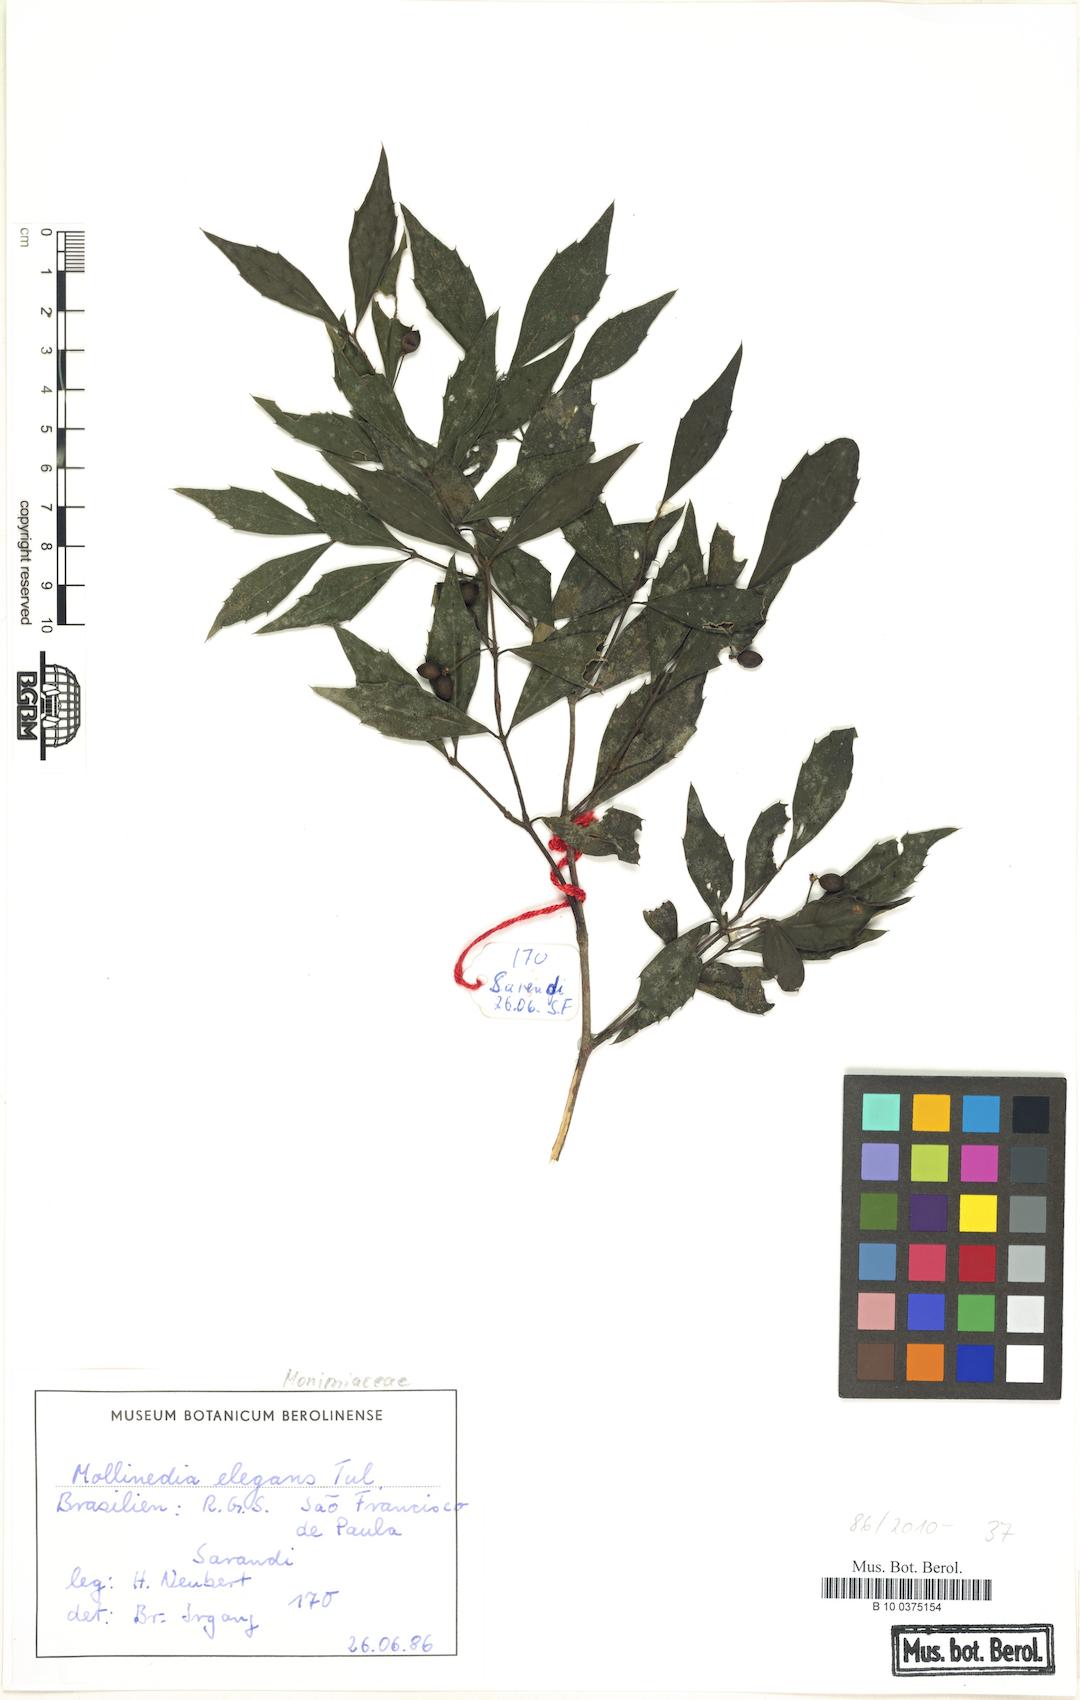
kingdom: Plantae
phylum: Tracheophyta
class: Magnoliopsida
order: Laurales
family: Monimiaceae
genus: Mollinedia
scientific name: Mollinedia elegans
